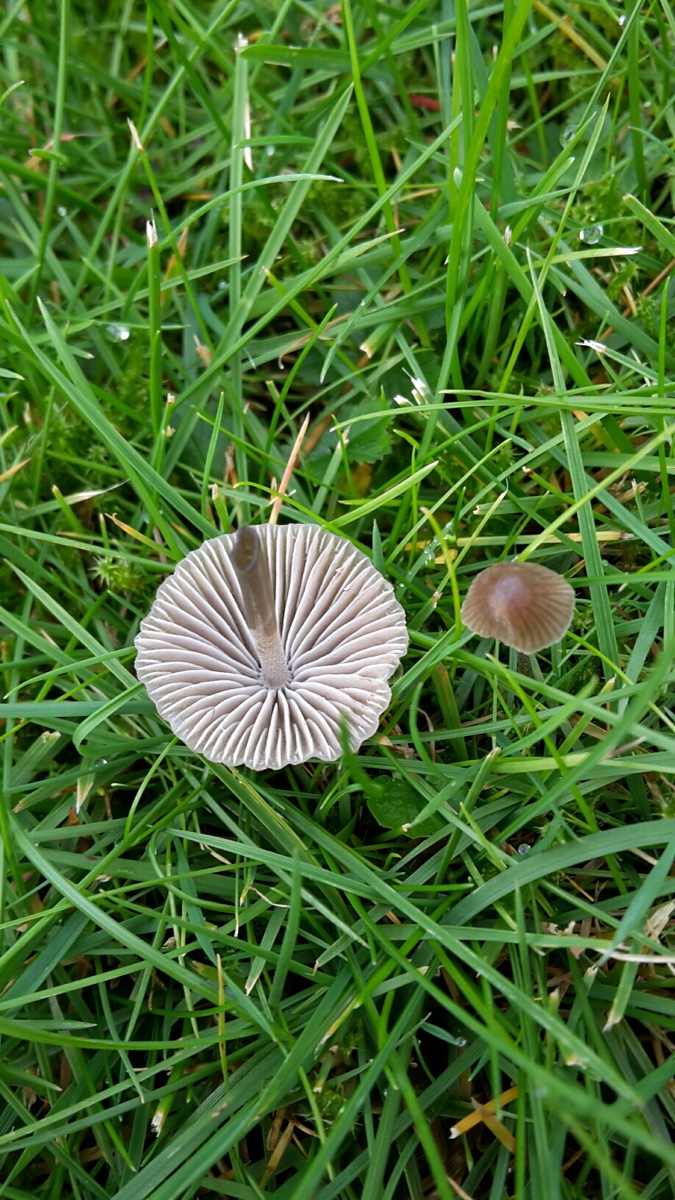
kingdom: Fungi
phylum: Basidiomycota
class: Agaricomycetes
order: Agaricales
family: Mycenaceae
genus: Mycena
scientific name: Mycena leptocephala
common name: klor-huesvamp
